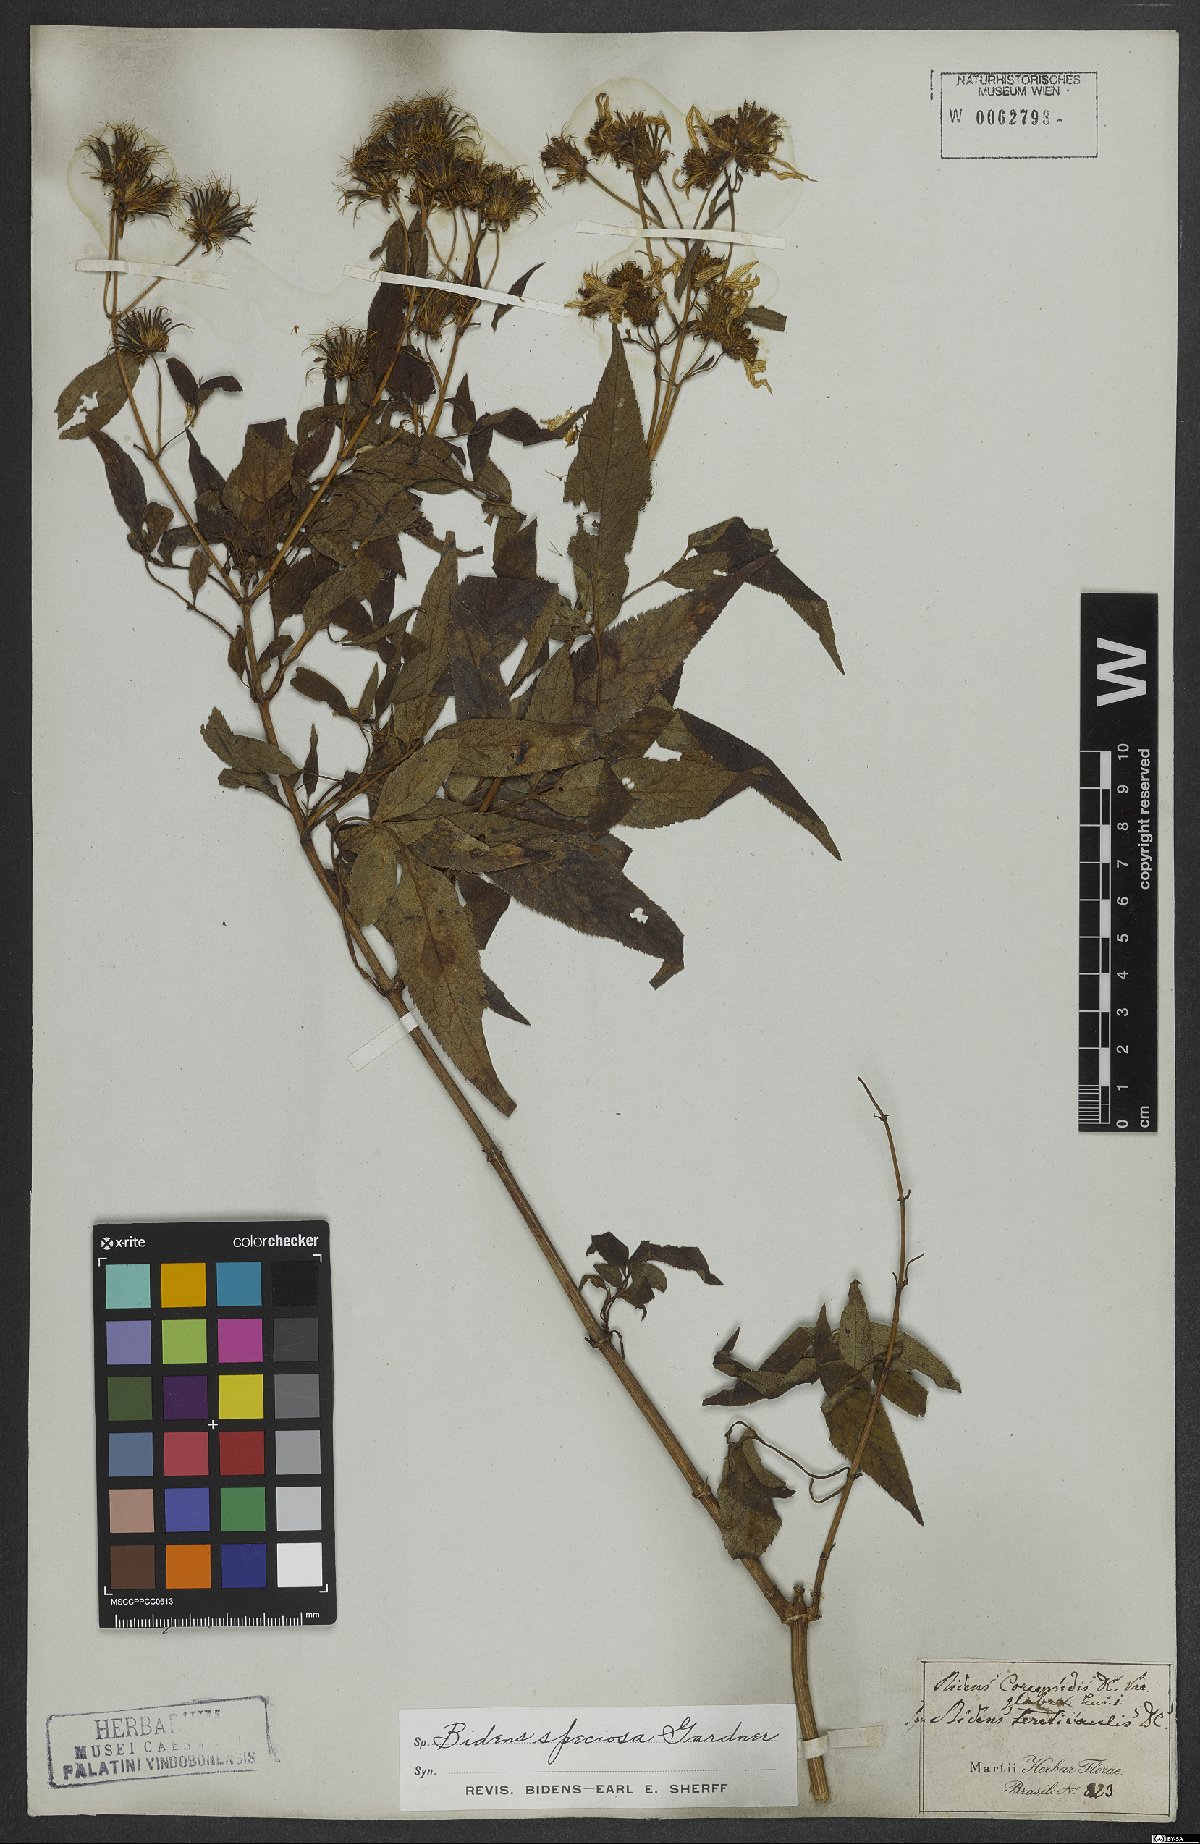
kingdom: Plantae
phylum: Tracheophyta
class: Magnoliopsida
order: Asterales
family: Asteraceae
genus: Bidens
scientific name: Bidens segetum
